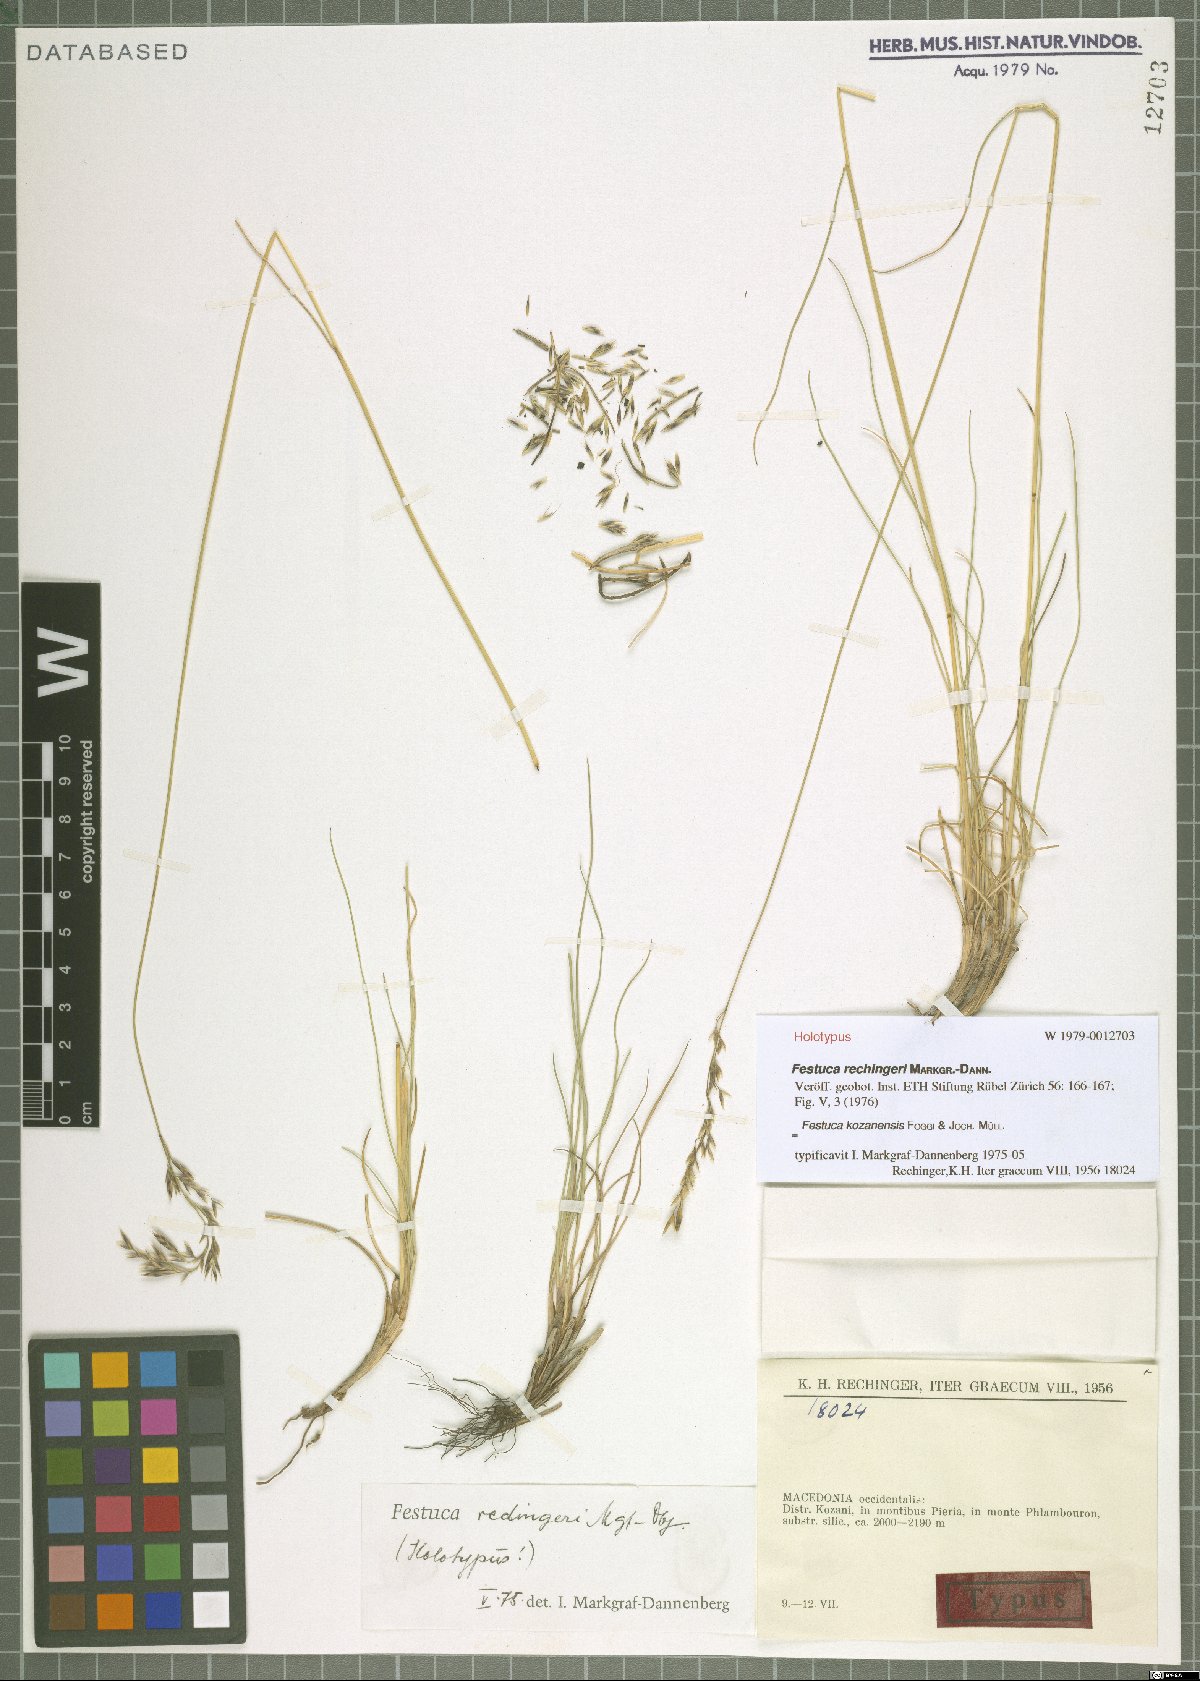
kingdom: Plantae
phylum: Tracheophyta
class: Liliopsida
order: Poales
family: Poaceae
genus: Festuca
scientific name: Festuca kozanensis
